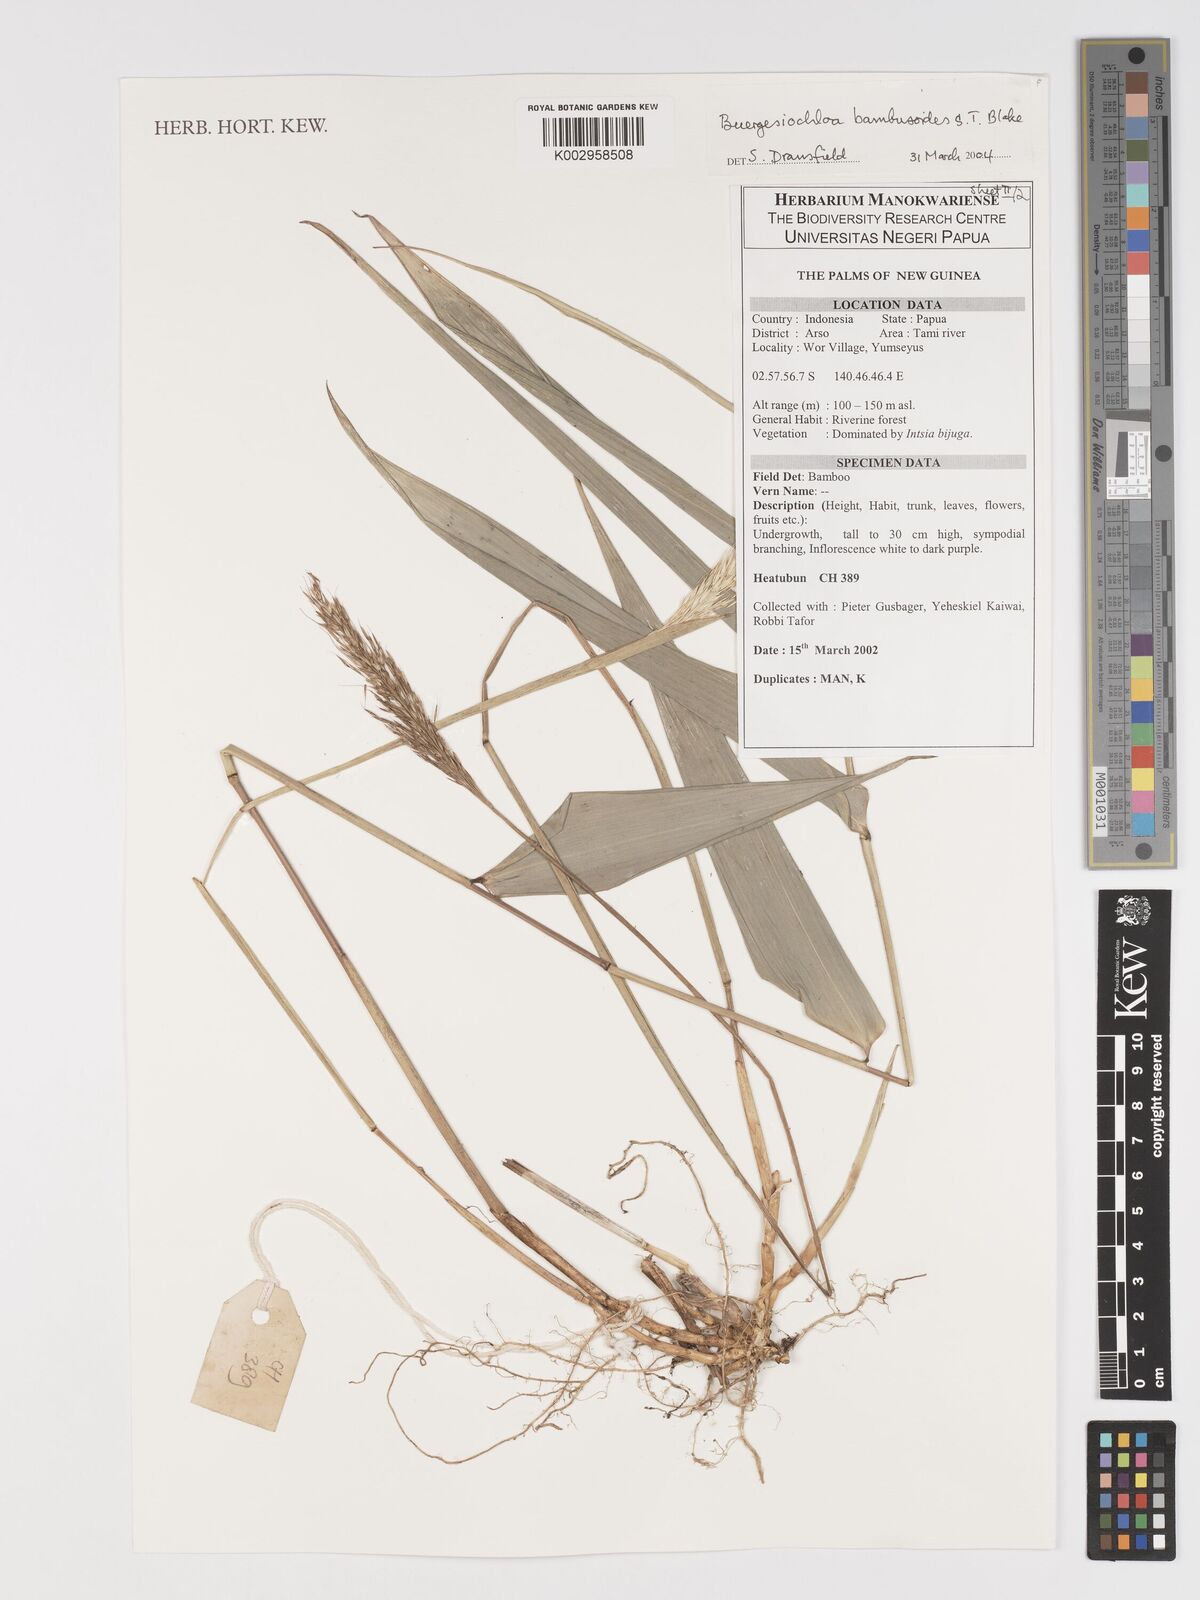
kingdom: Plantae
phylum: Tracheophyta
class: Liliopsida
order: Poales
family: Poaceae
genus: Buergersiochloa
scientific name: Buergersiochloa bambusoides
